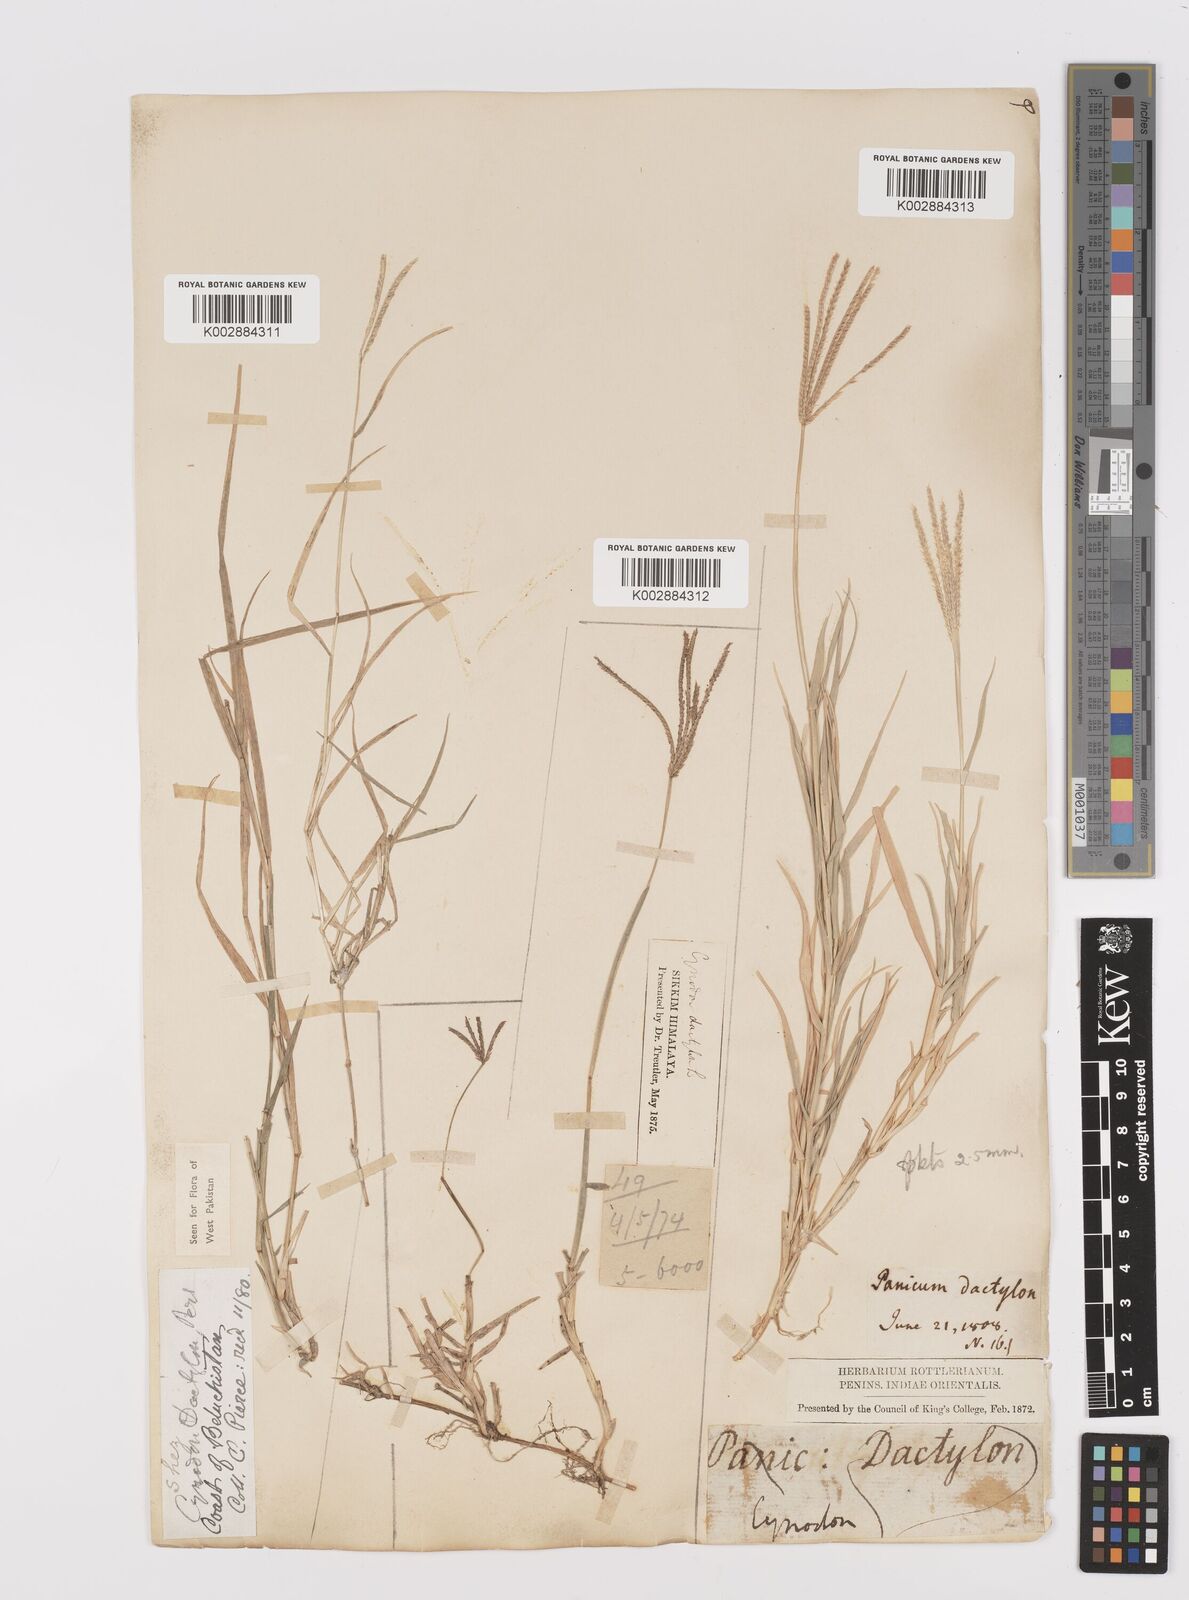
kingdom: Plantae
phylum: Tracheophyta
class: Liliopsida
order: Poales
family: Poaceae
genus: Cynodon
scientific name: Cynodon dactylon
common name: Bermuda grass
